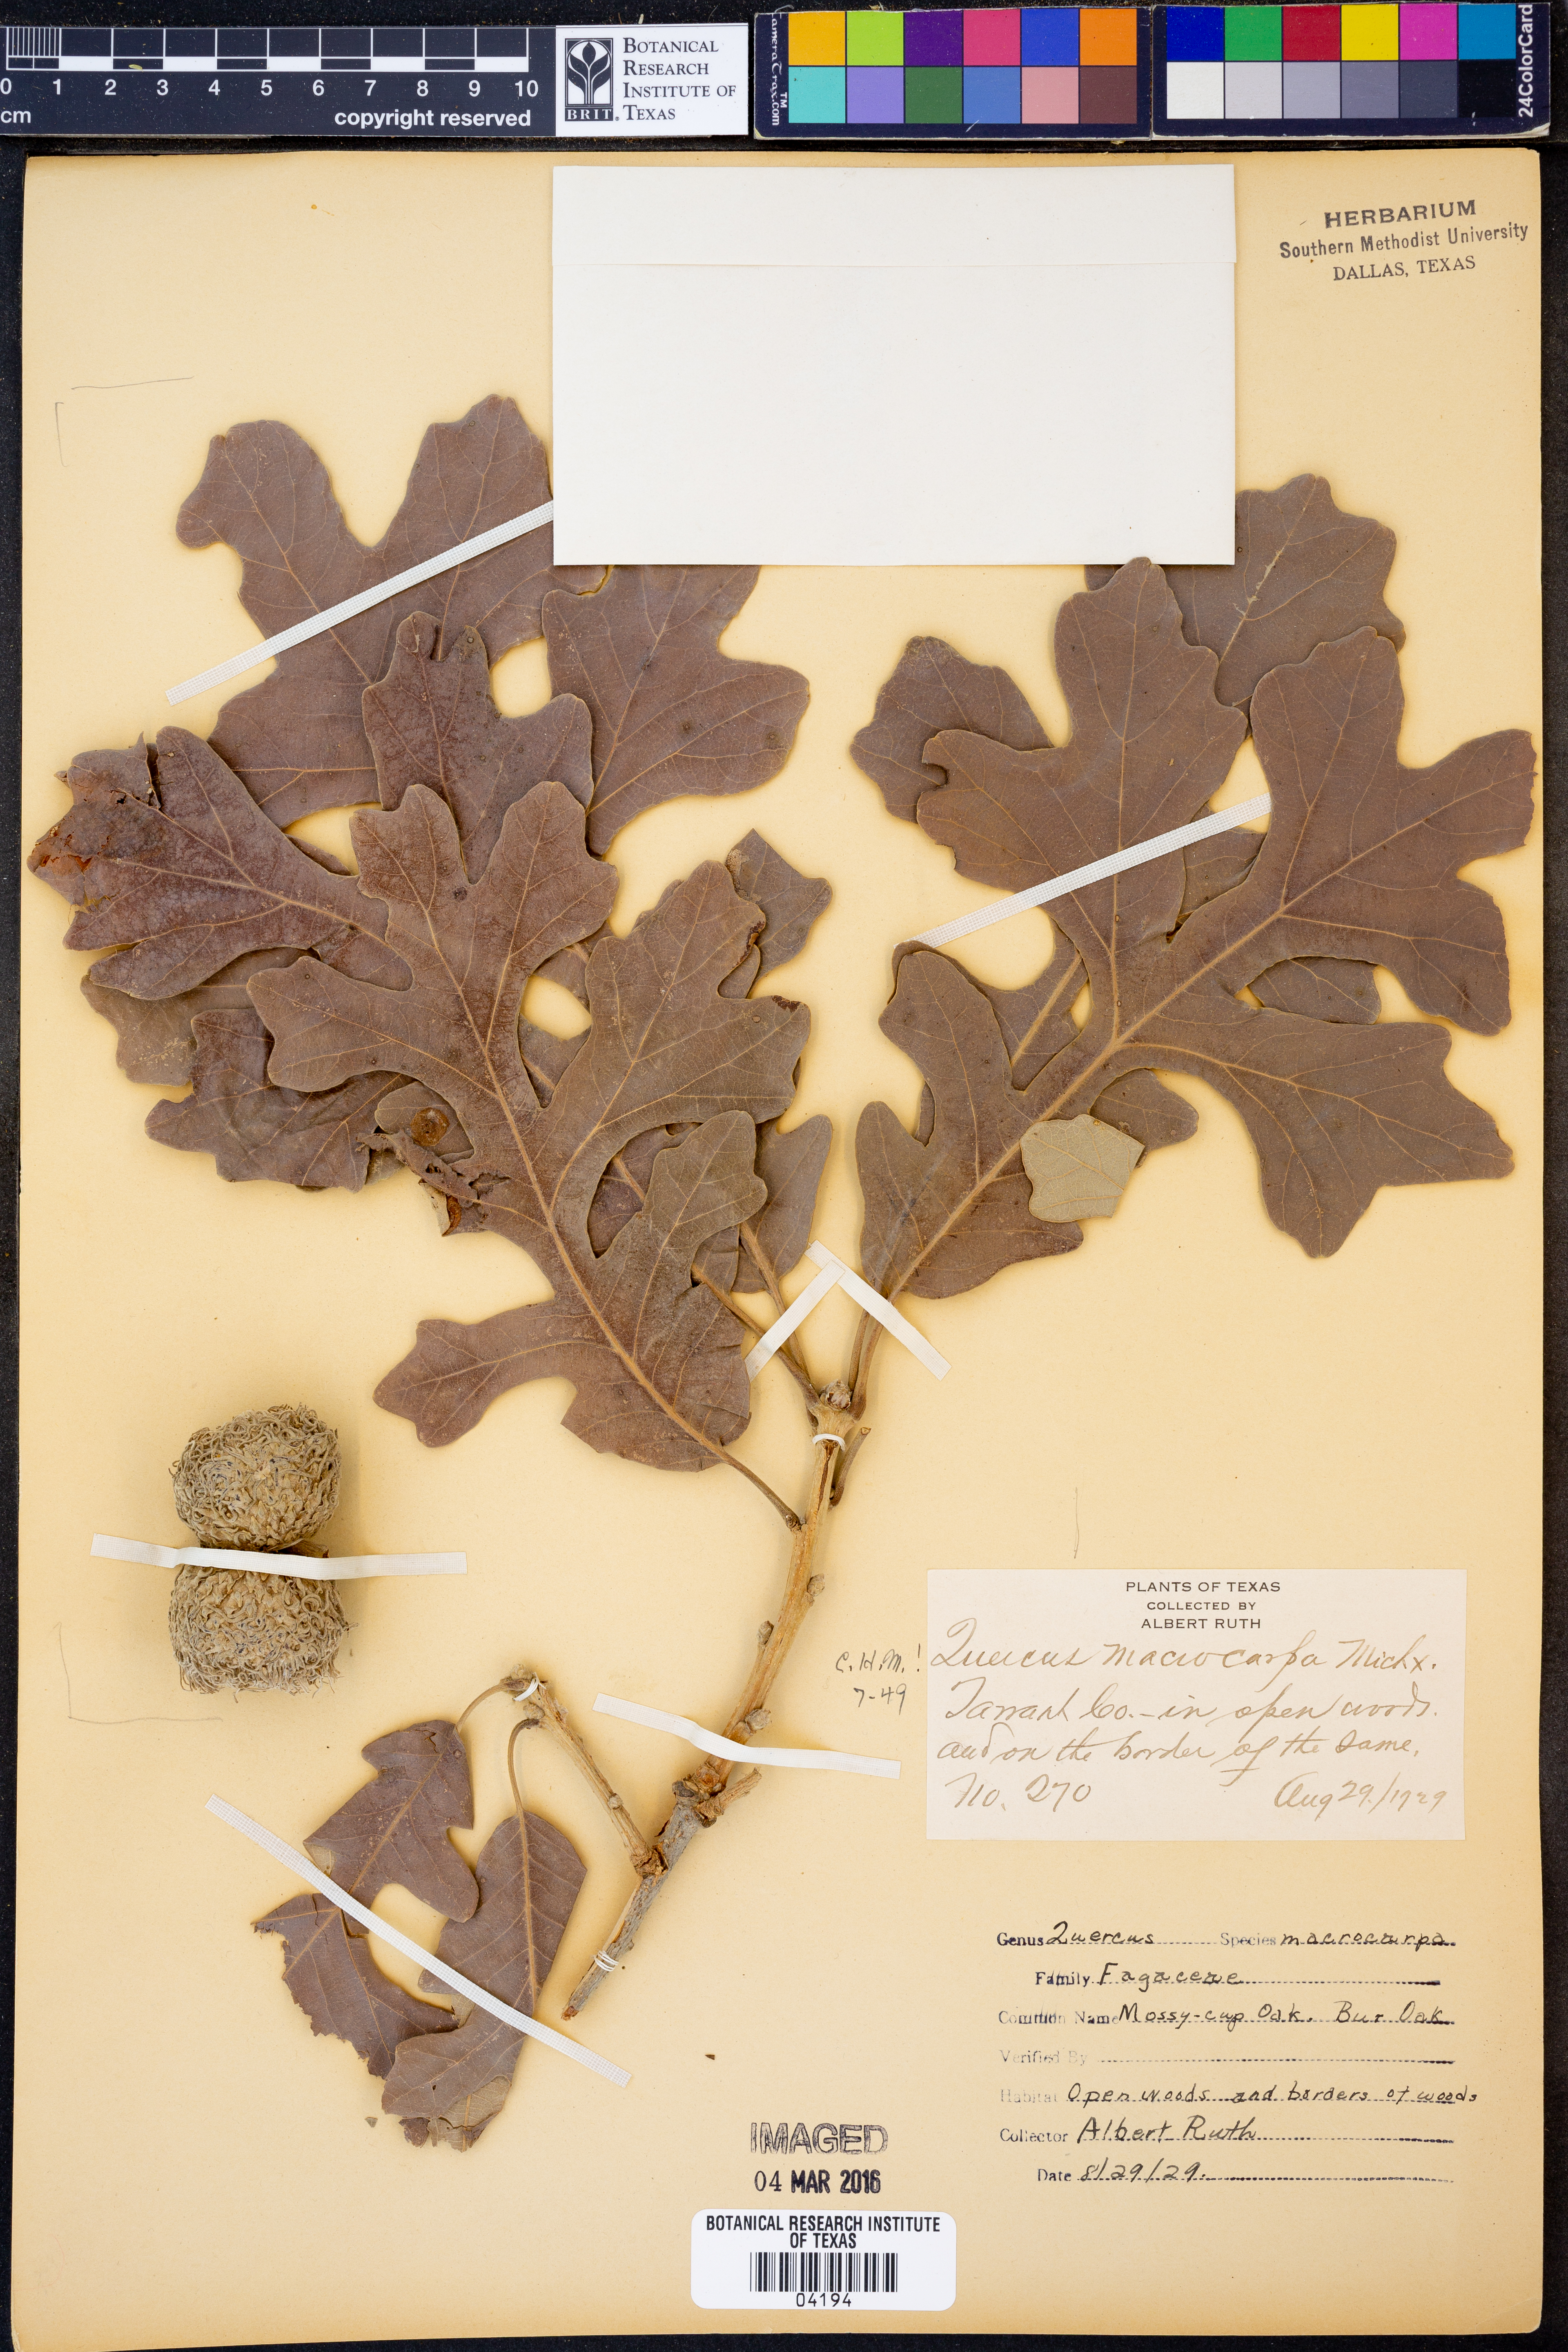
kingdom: Plantae
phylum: Tracheophyta
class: Magnoliopsida
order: Fagales
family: Fagaceae
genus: Quercus
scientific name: Quercus macrocarpa
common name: Bur oak
